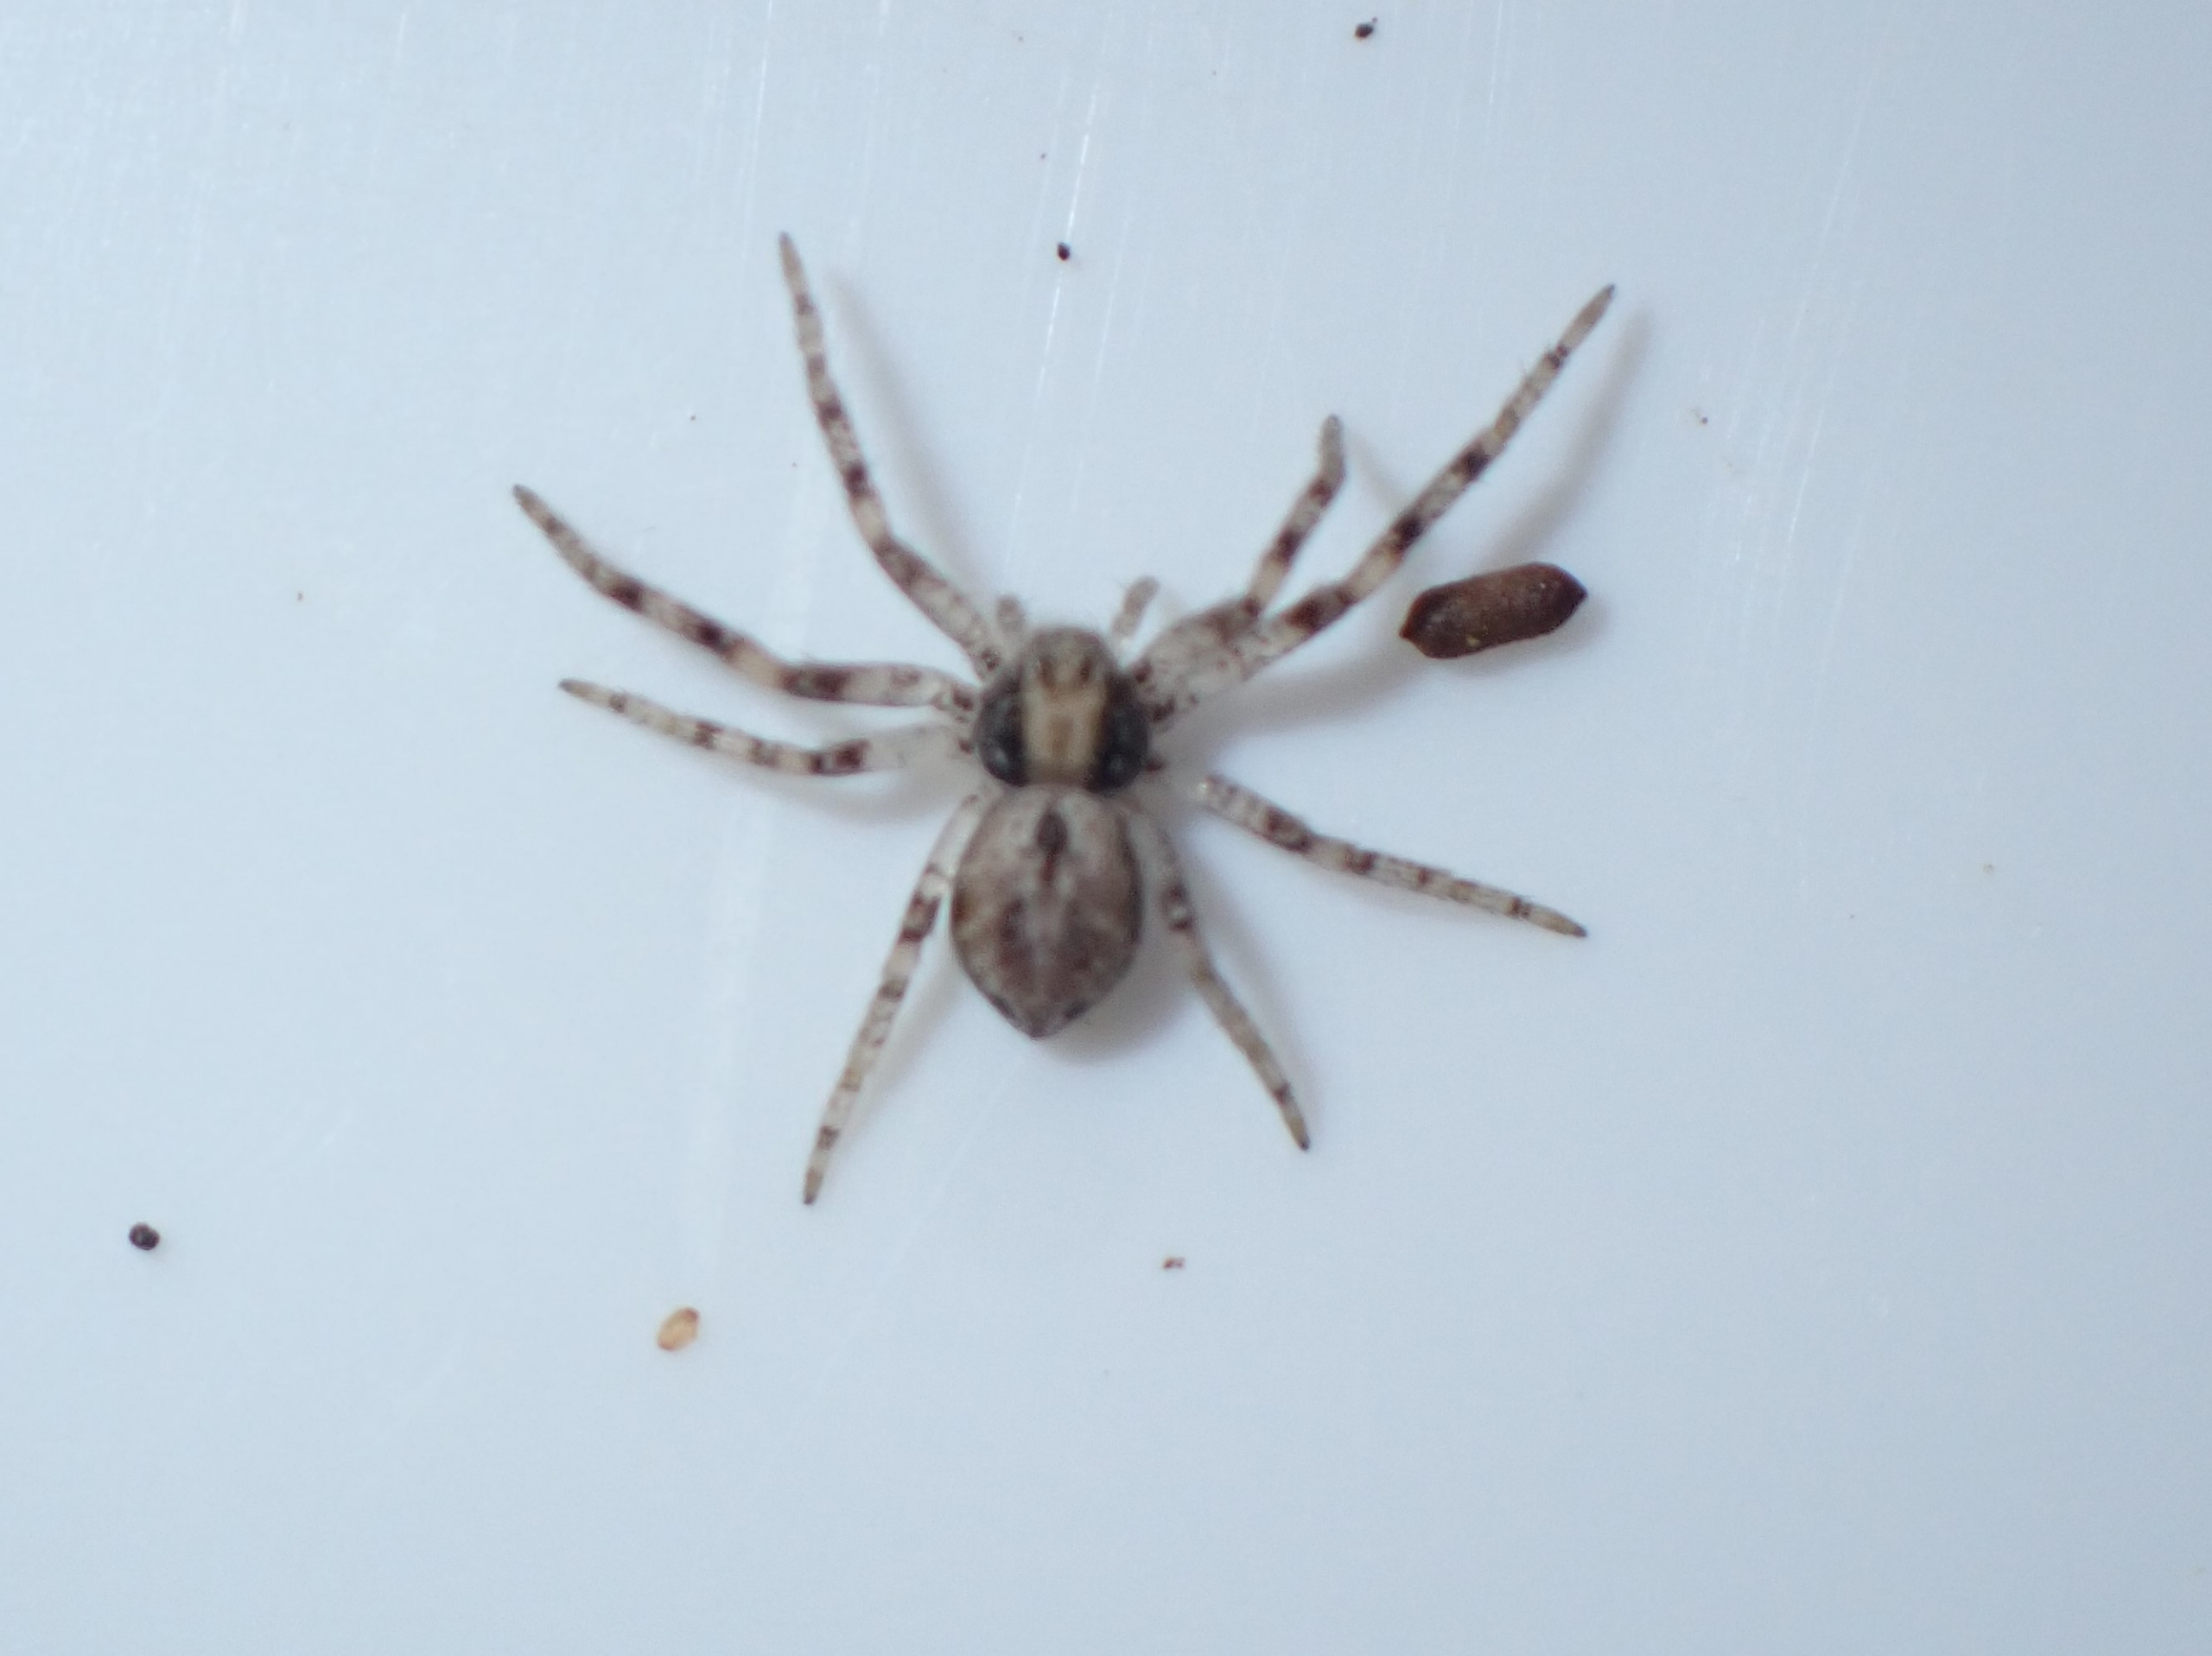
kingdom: Animalia
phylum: Arthropoda
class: Arachnida
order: Araneae
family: Philodromidae
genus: Philodromus
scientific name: Philodromus
